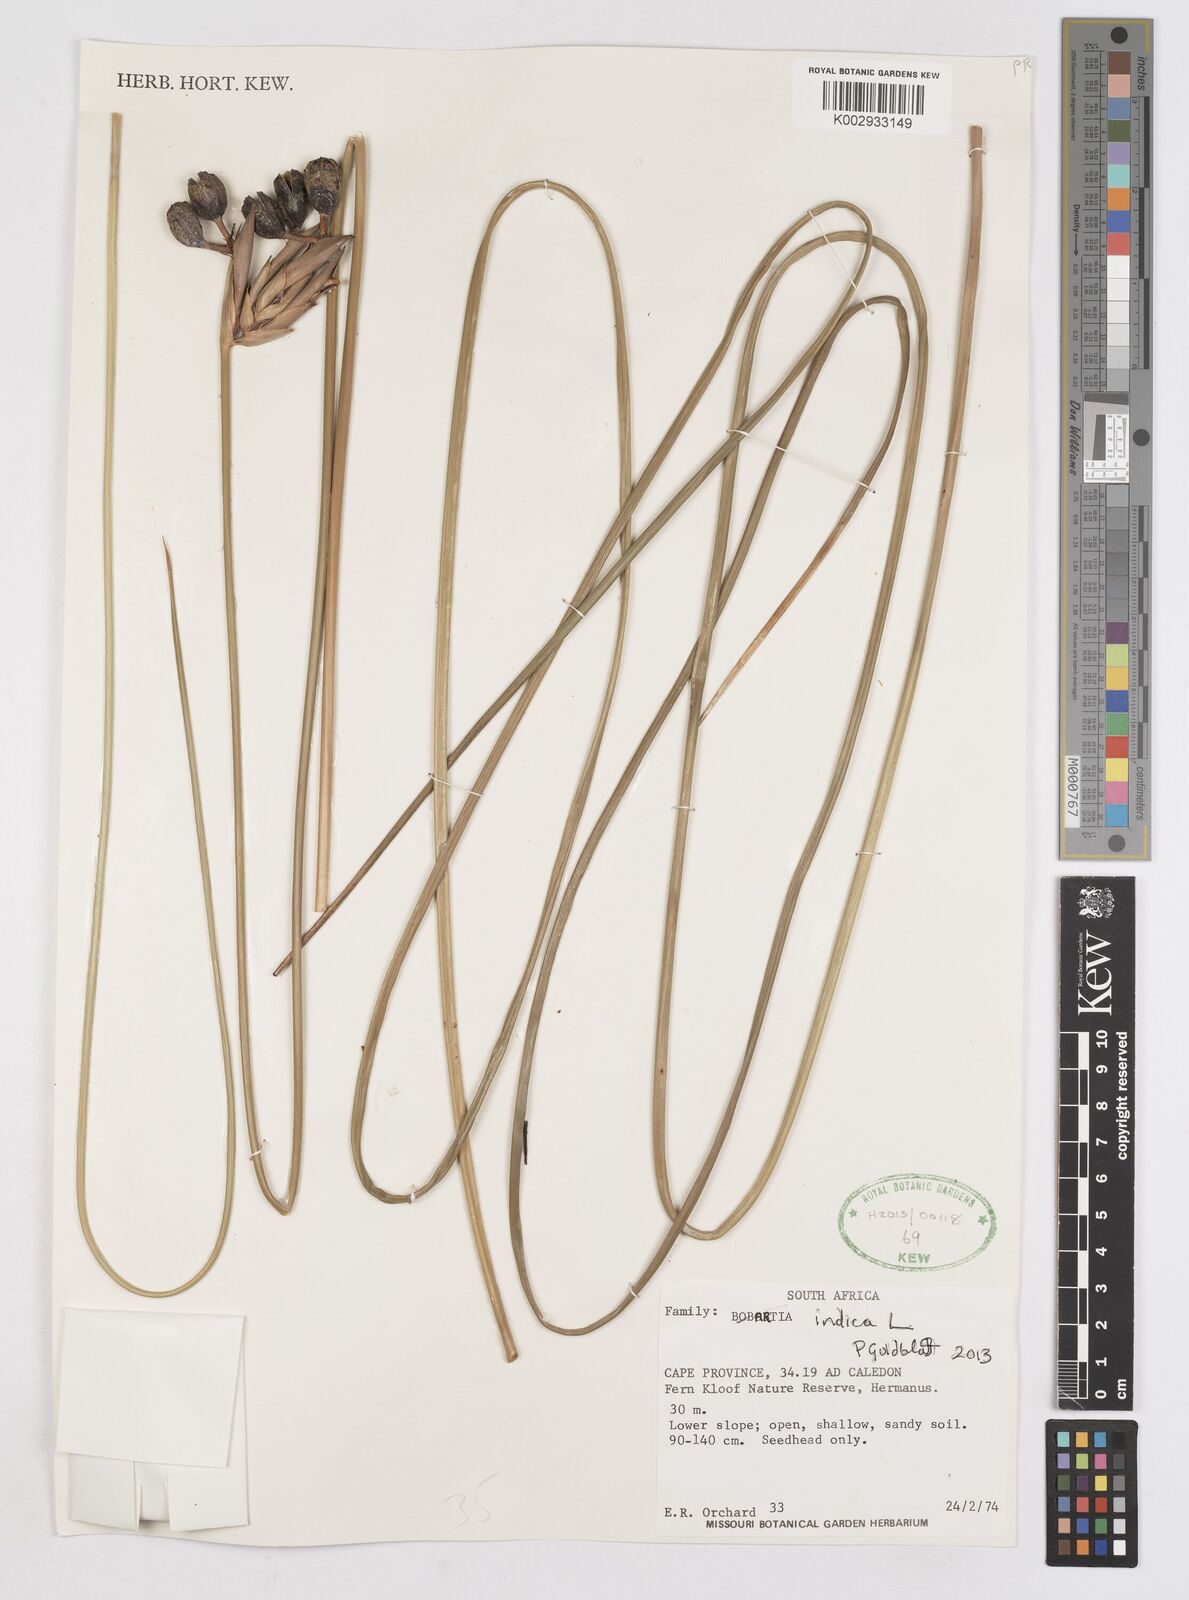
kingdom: Plantae
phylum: Tracheophyta
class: Liliopsida
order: Asparagales
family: Iridaceae
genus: Bobartia
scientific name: Bobartia indica
